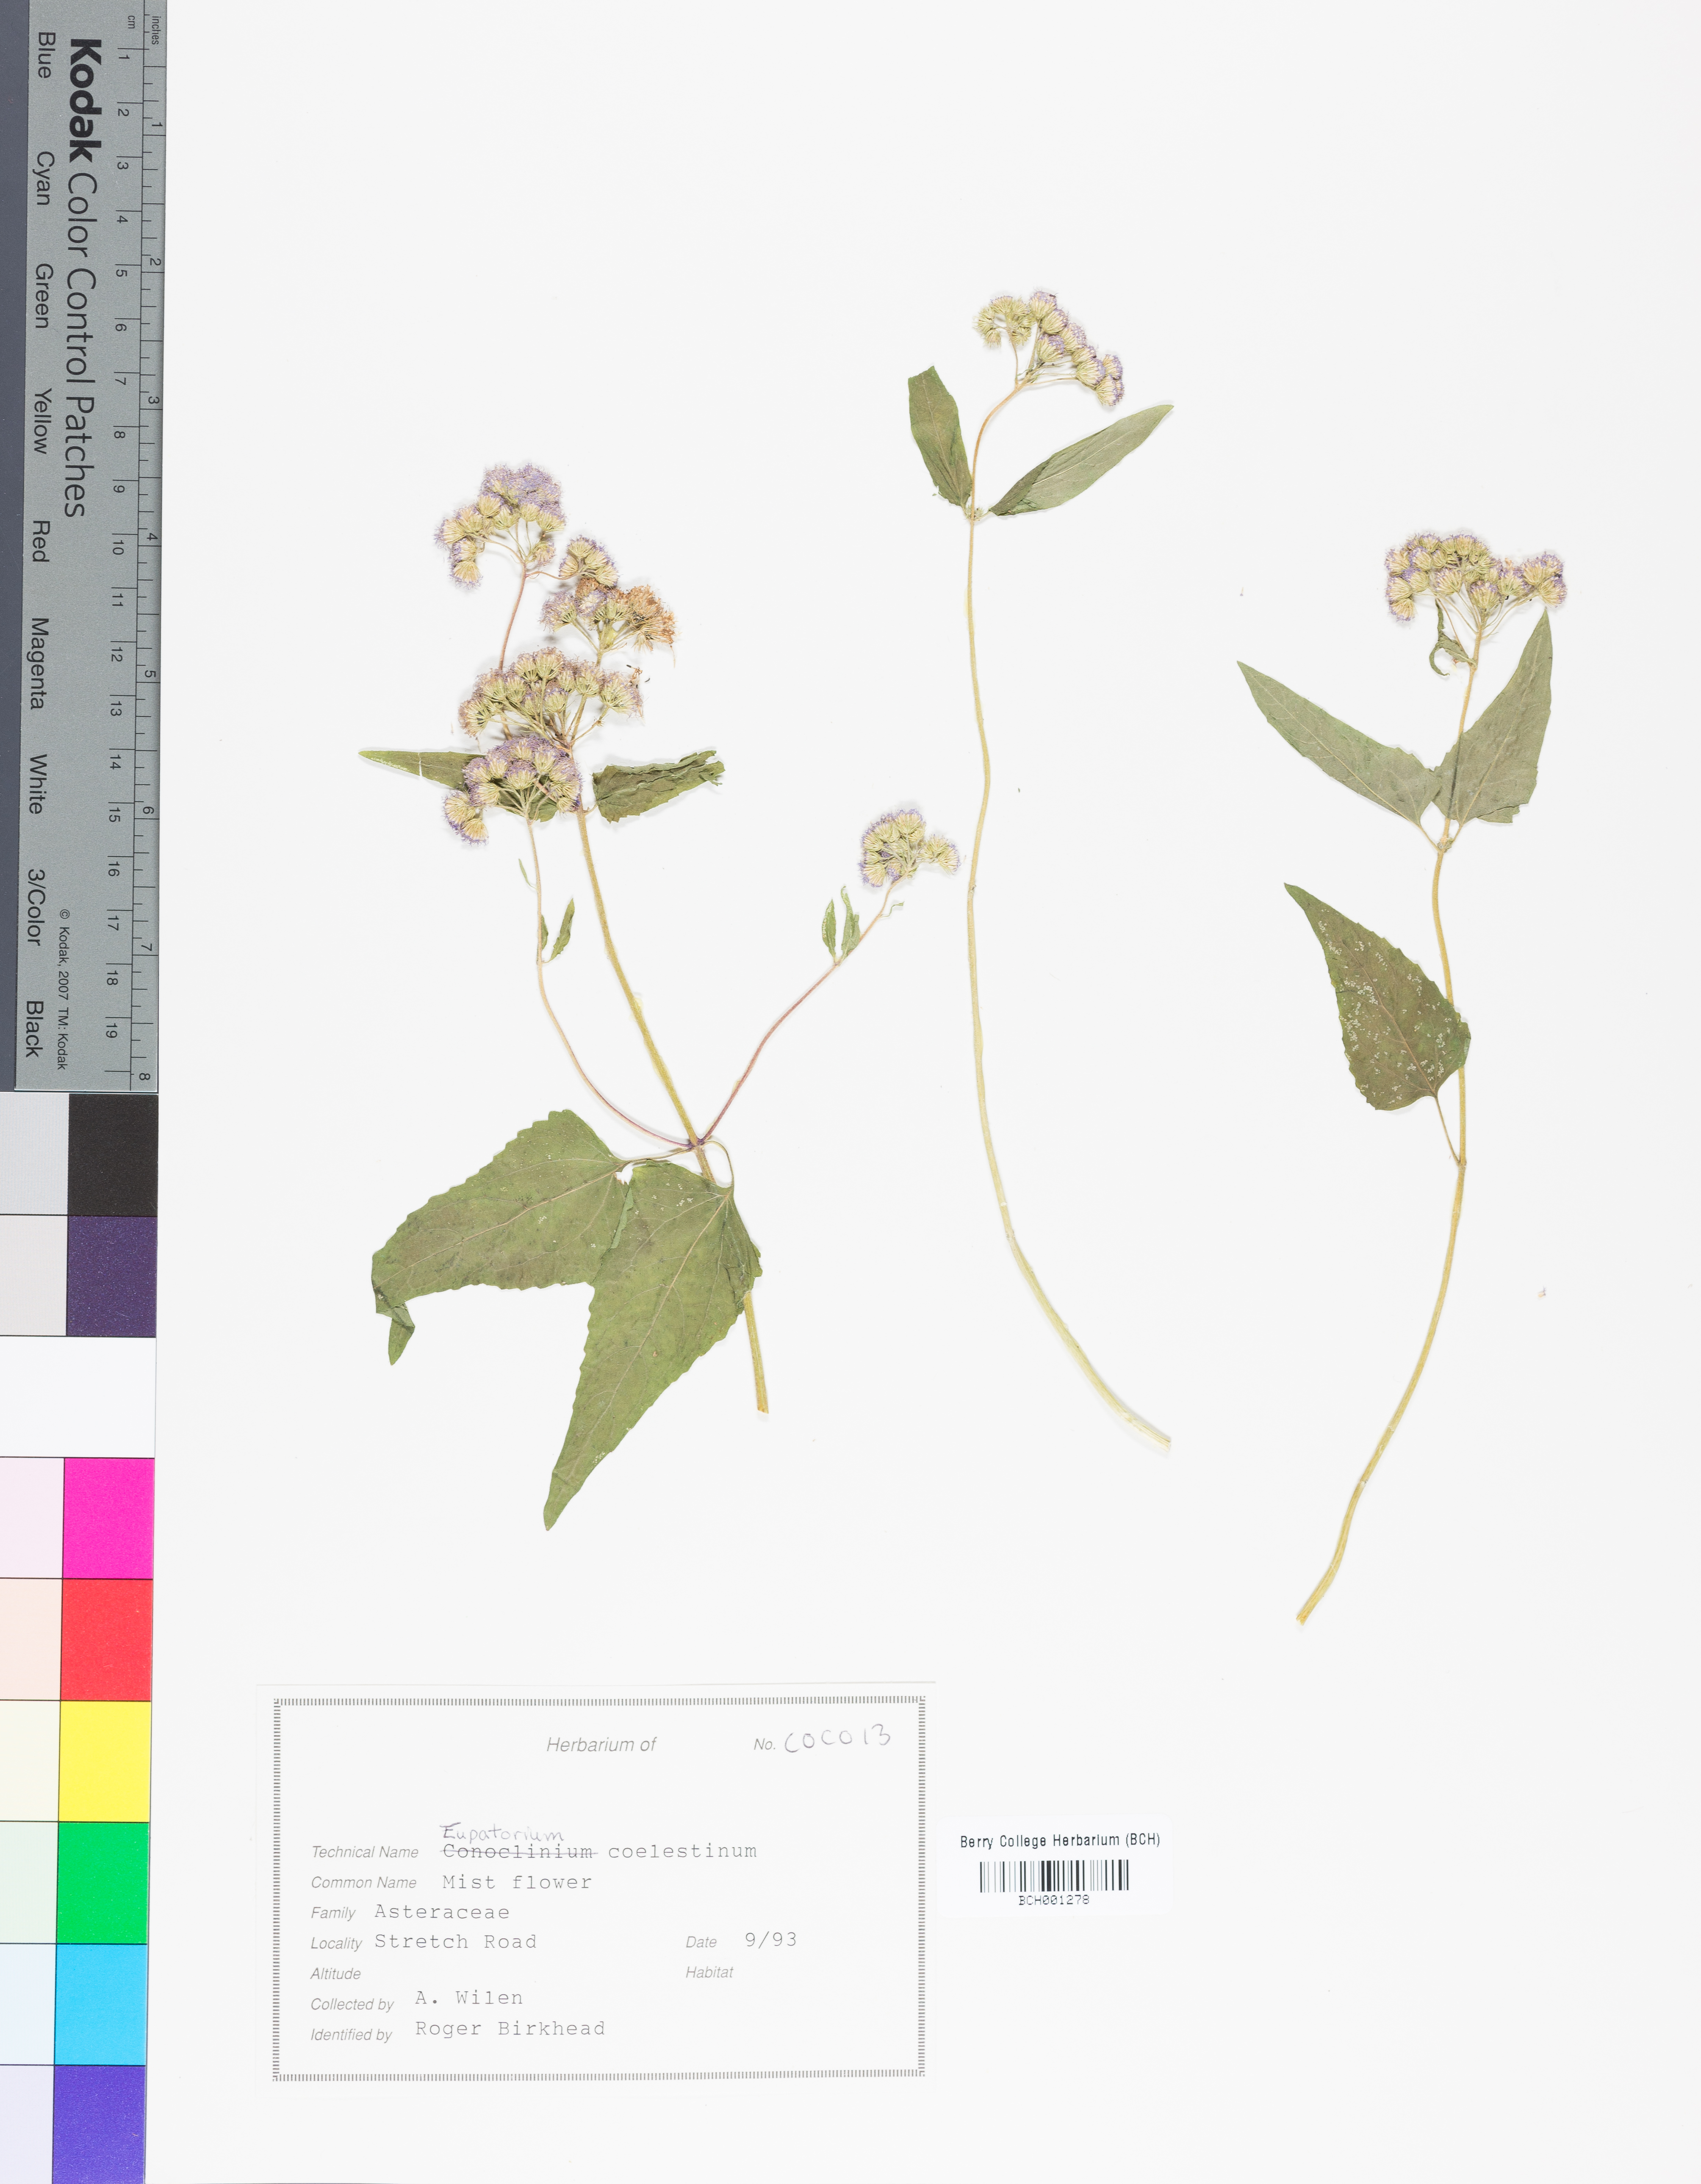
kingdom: Plantae
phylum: Tracheophyta
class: Magnoliopsida
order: Asterales
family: Asteraceae
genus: Conoclinium
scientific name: Conoclinium coelestinum
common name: Blue mistflower
